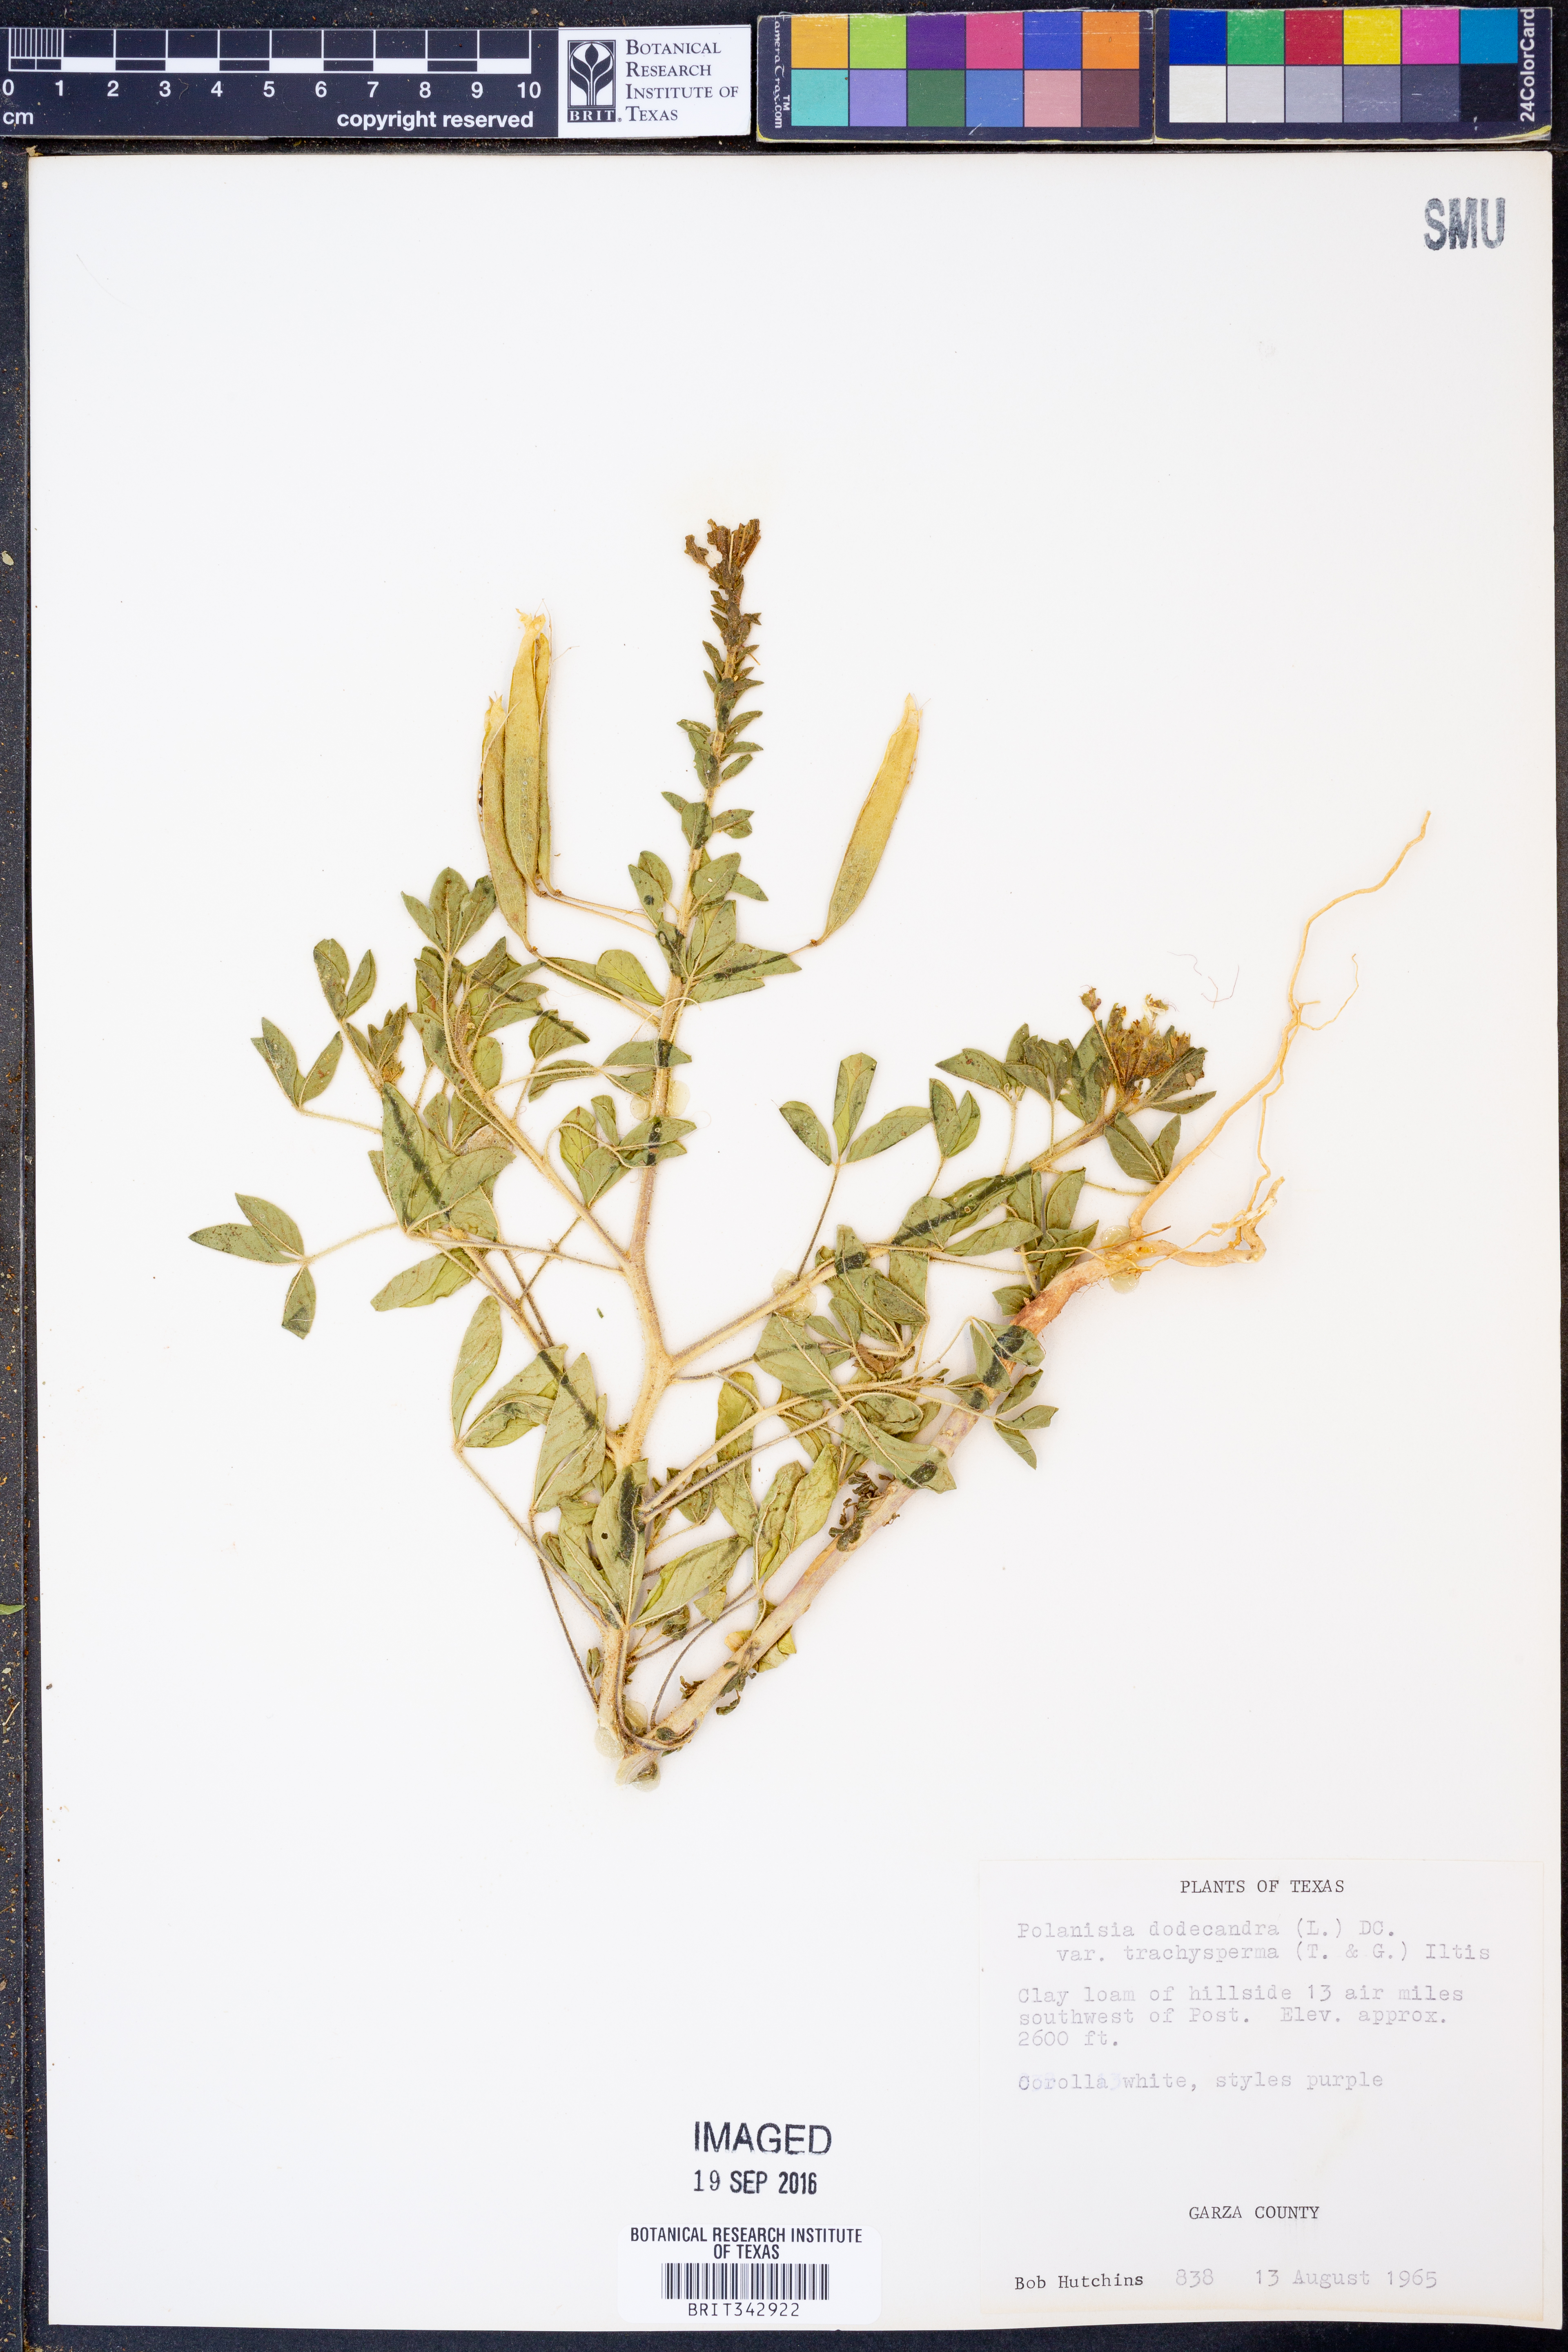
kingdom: Plantae
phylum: Tracheophyta
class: Magnoliopsida
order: Brassicales
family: Cleomaceae
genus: Polanisia
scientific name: Polanisia trachysperma
